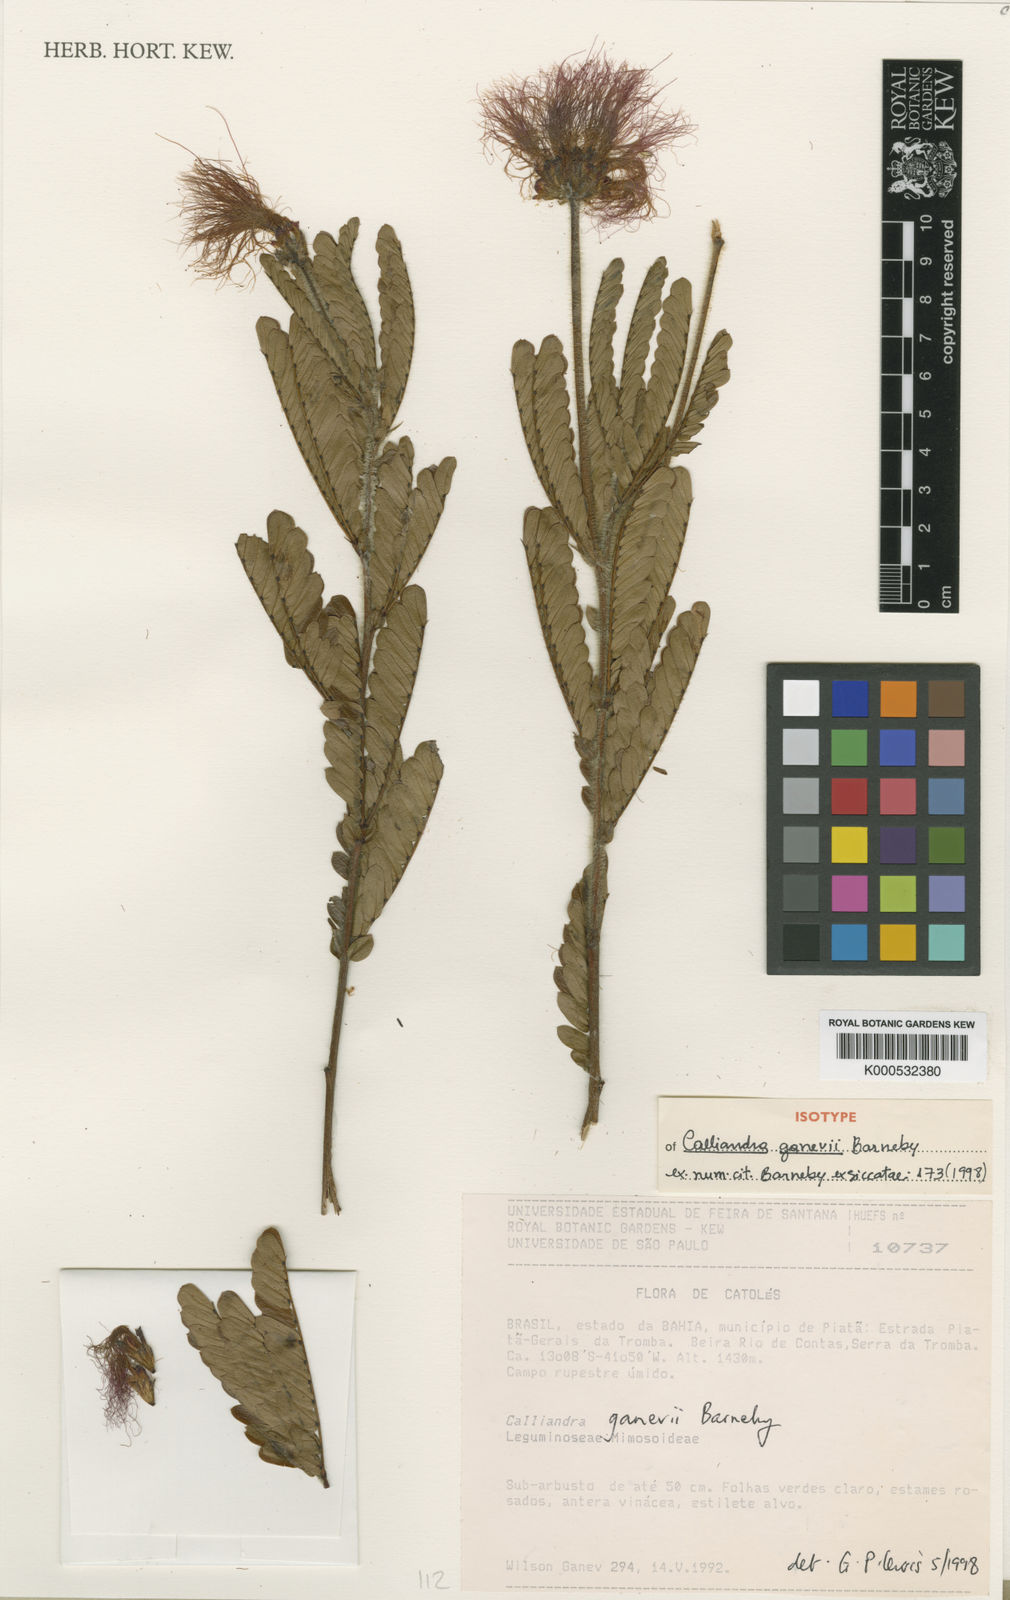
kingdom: Plantae
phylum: Tracheophyta
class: Magnoliopsida
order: Fabales
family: Fabaceae
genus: Calliandra
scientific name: Calliandra ganevii
